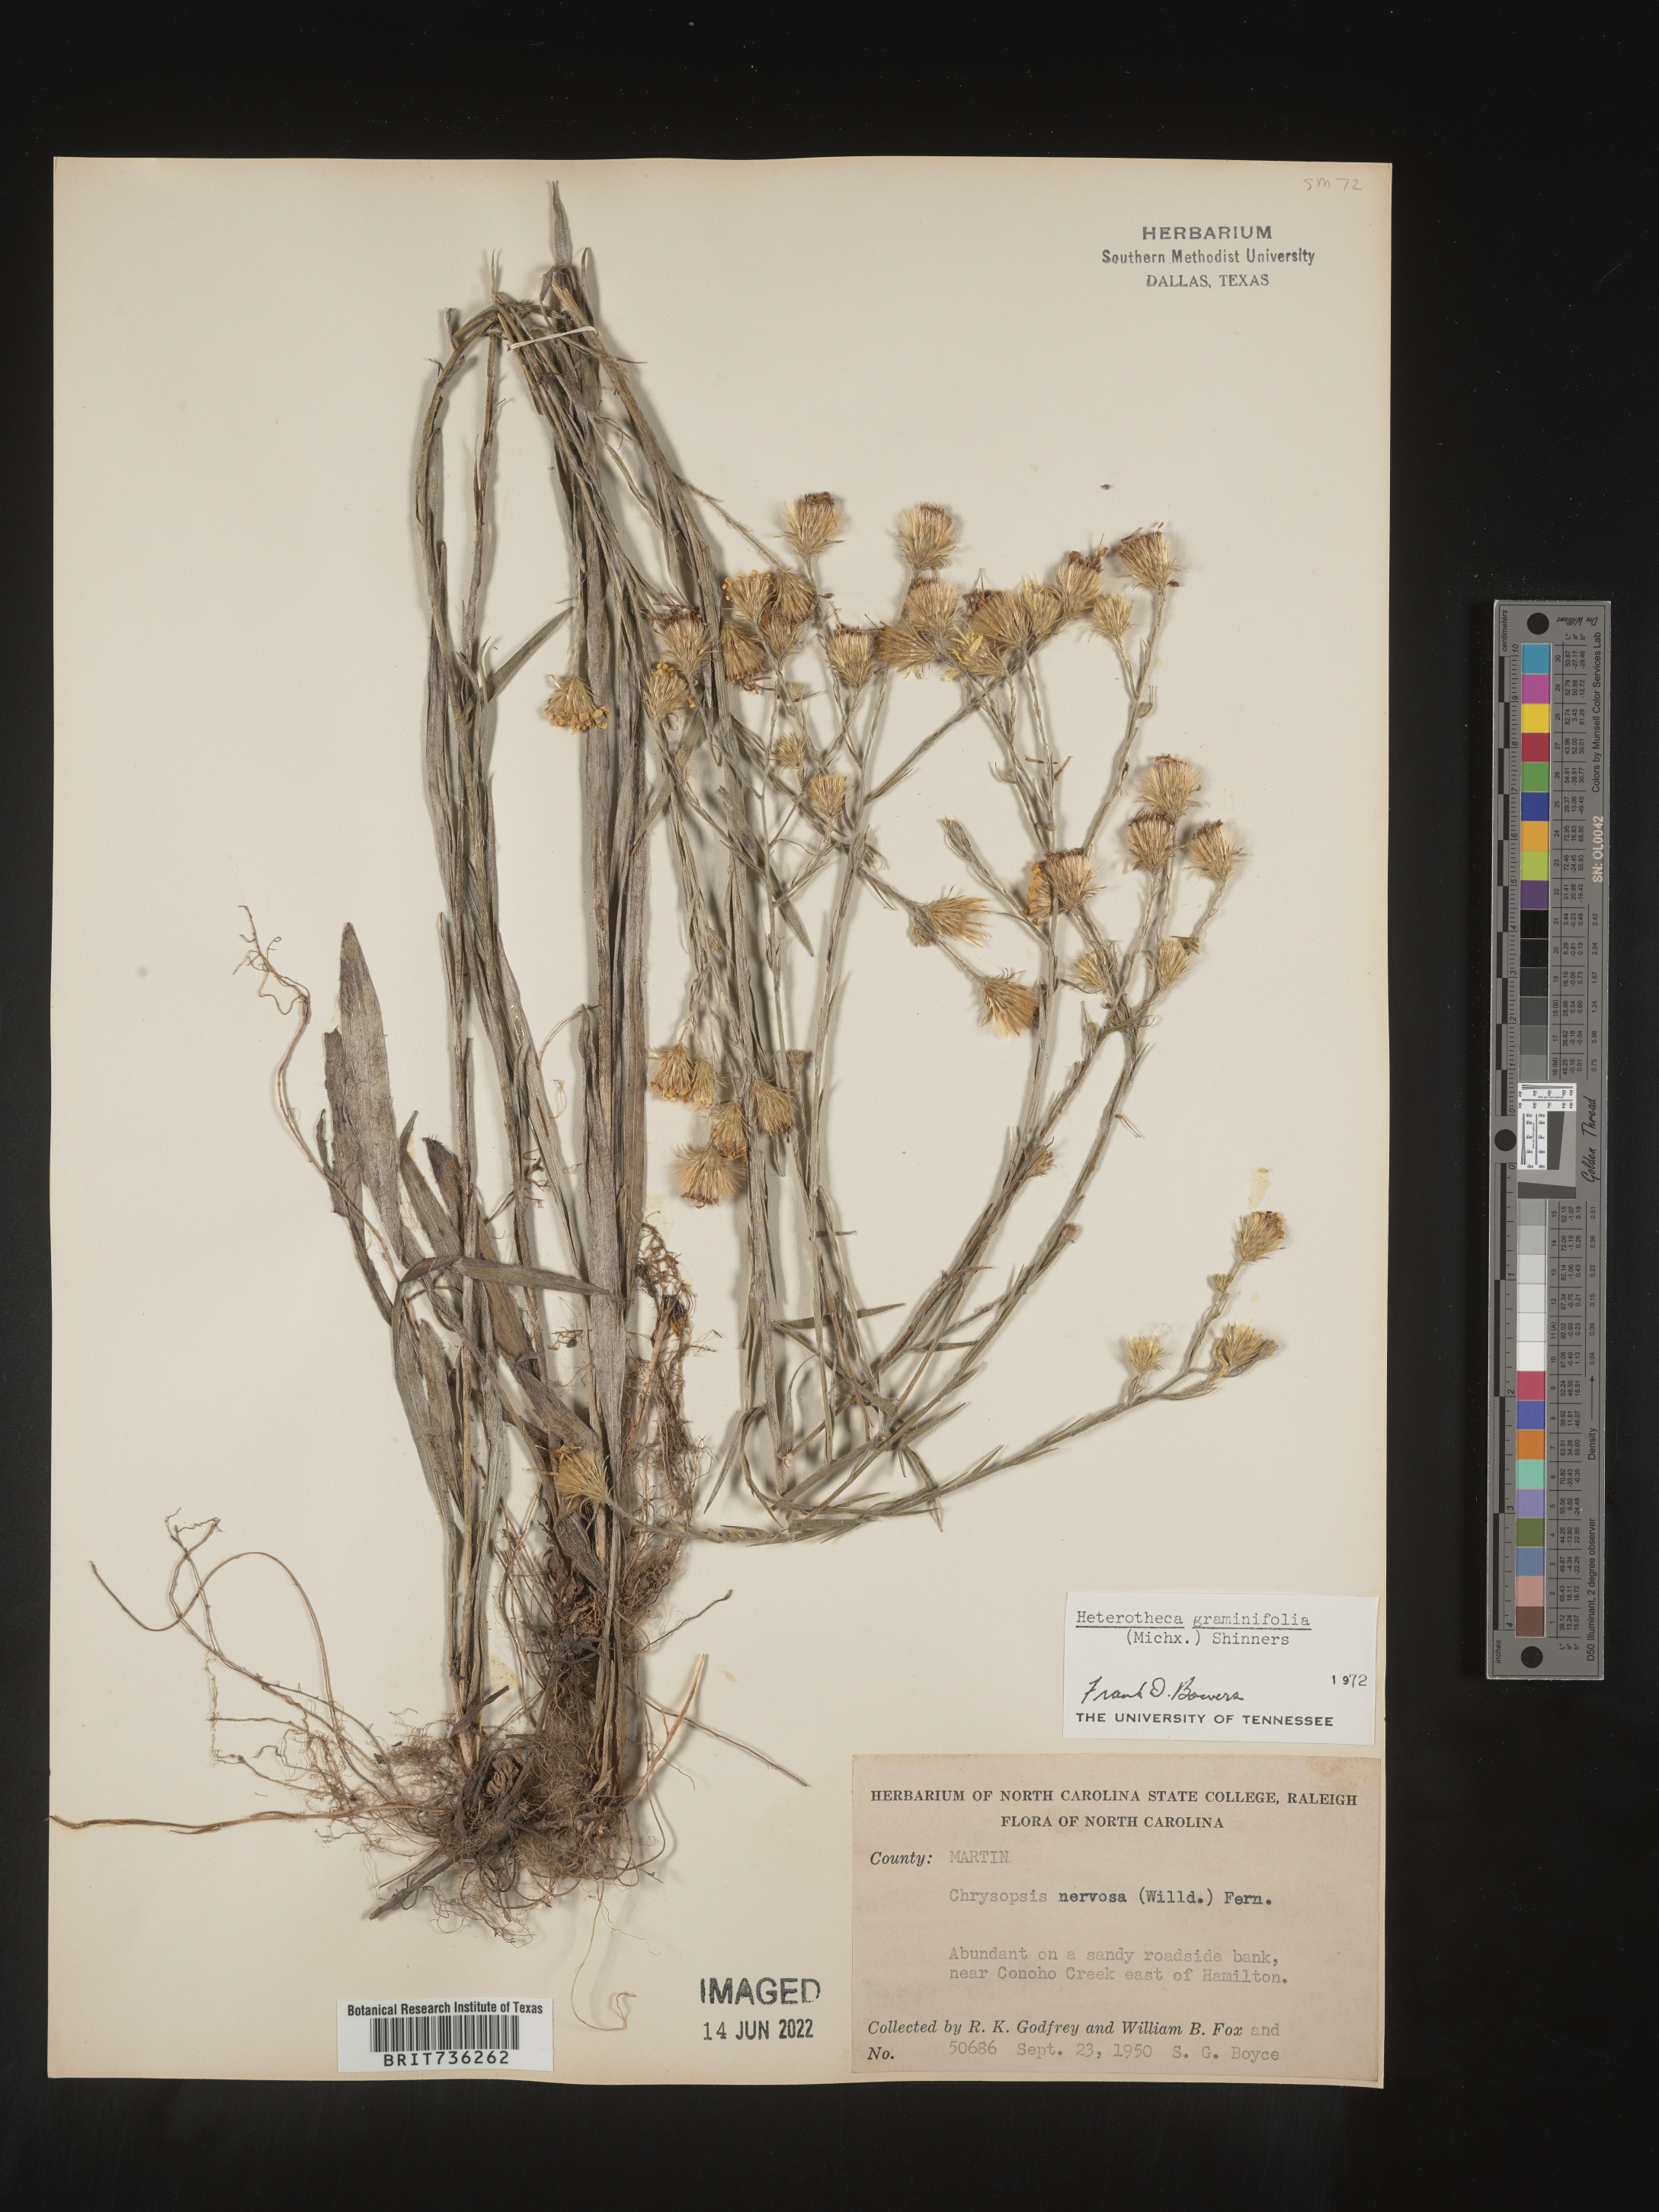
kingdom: Plantae
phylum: Tracheophyta
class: Magnoliopsida
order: Asterales
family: Asteraceae
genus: Pityopsis
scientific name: Pityopsis graminifolia
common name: Grass-leaf golden-aster
